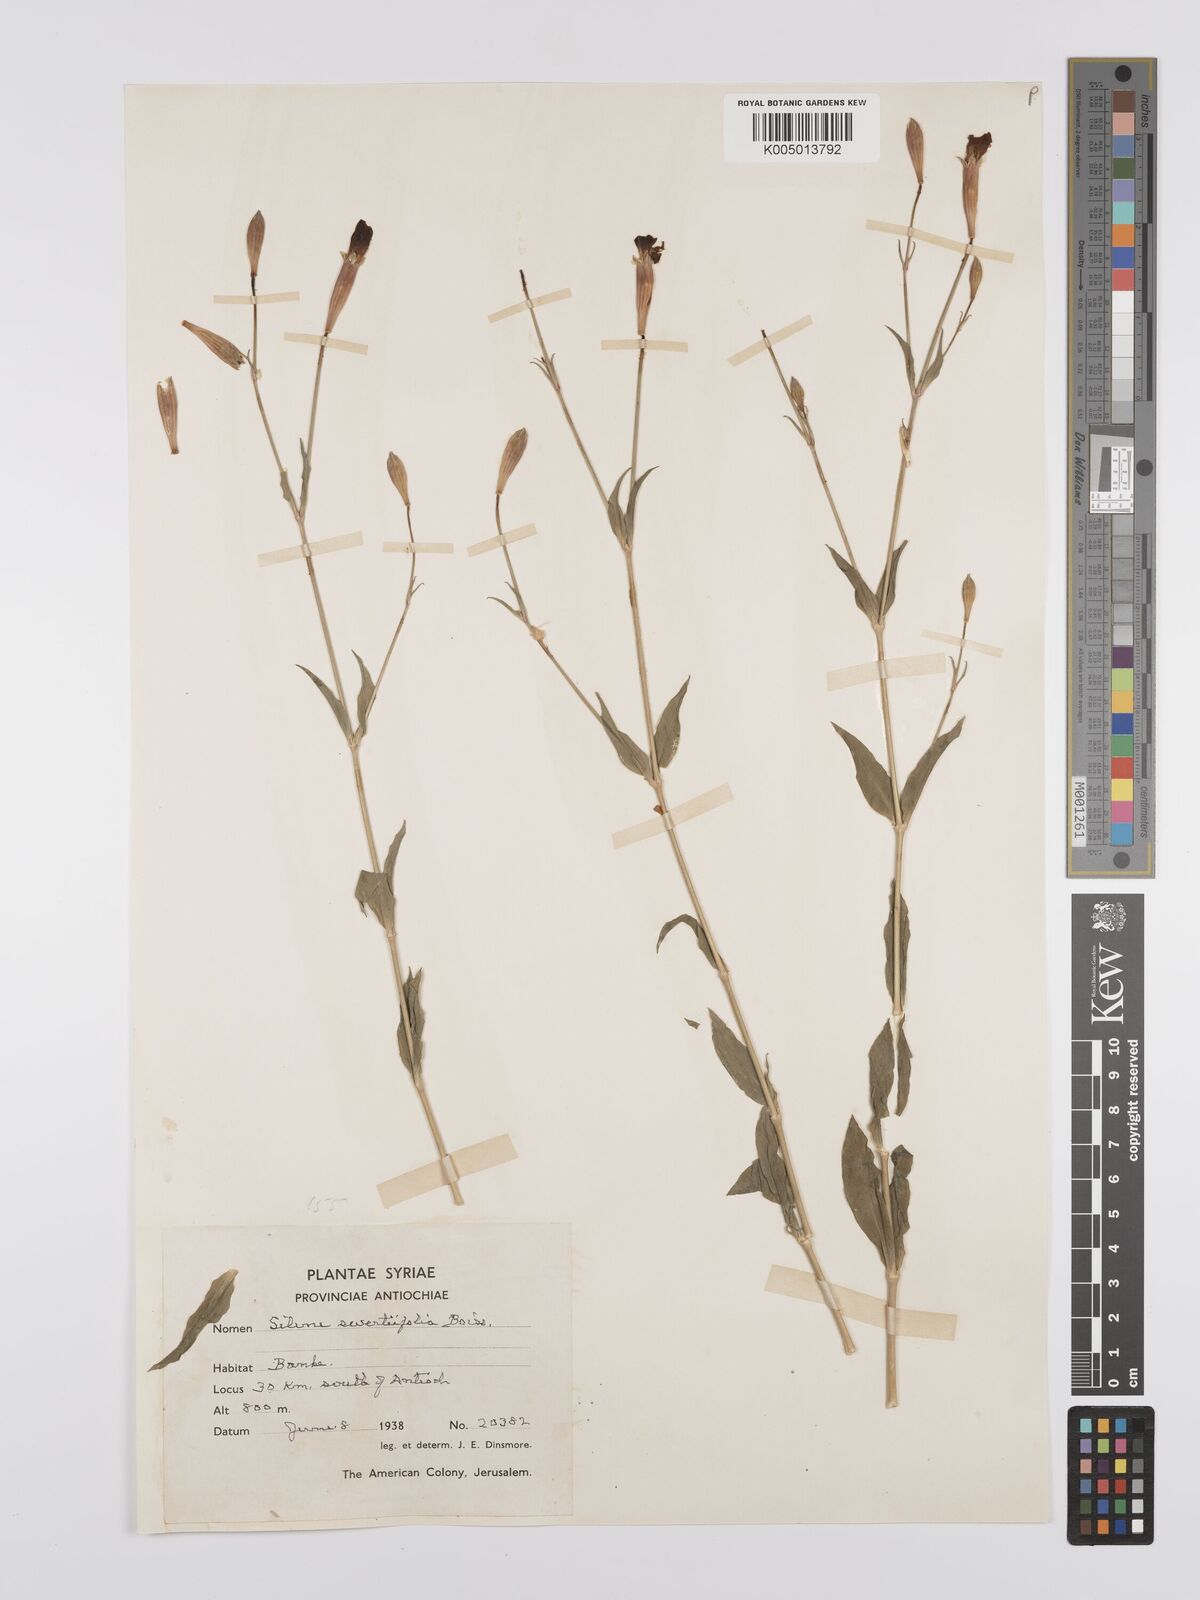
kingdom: Plantae
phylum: Tracheophyta
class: Magnoliopsida
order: Caryophyllales
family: Caryophyllaceae
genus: Silene
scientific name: Silene swertiifolia
